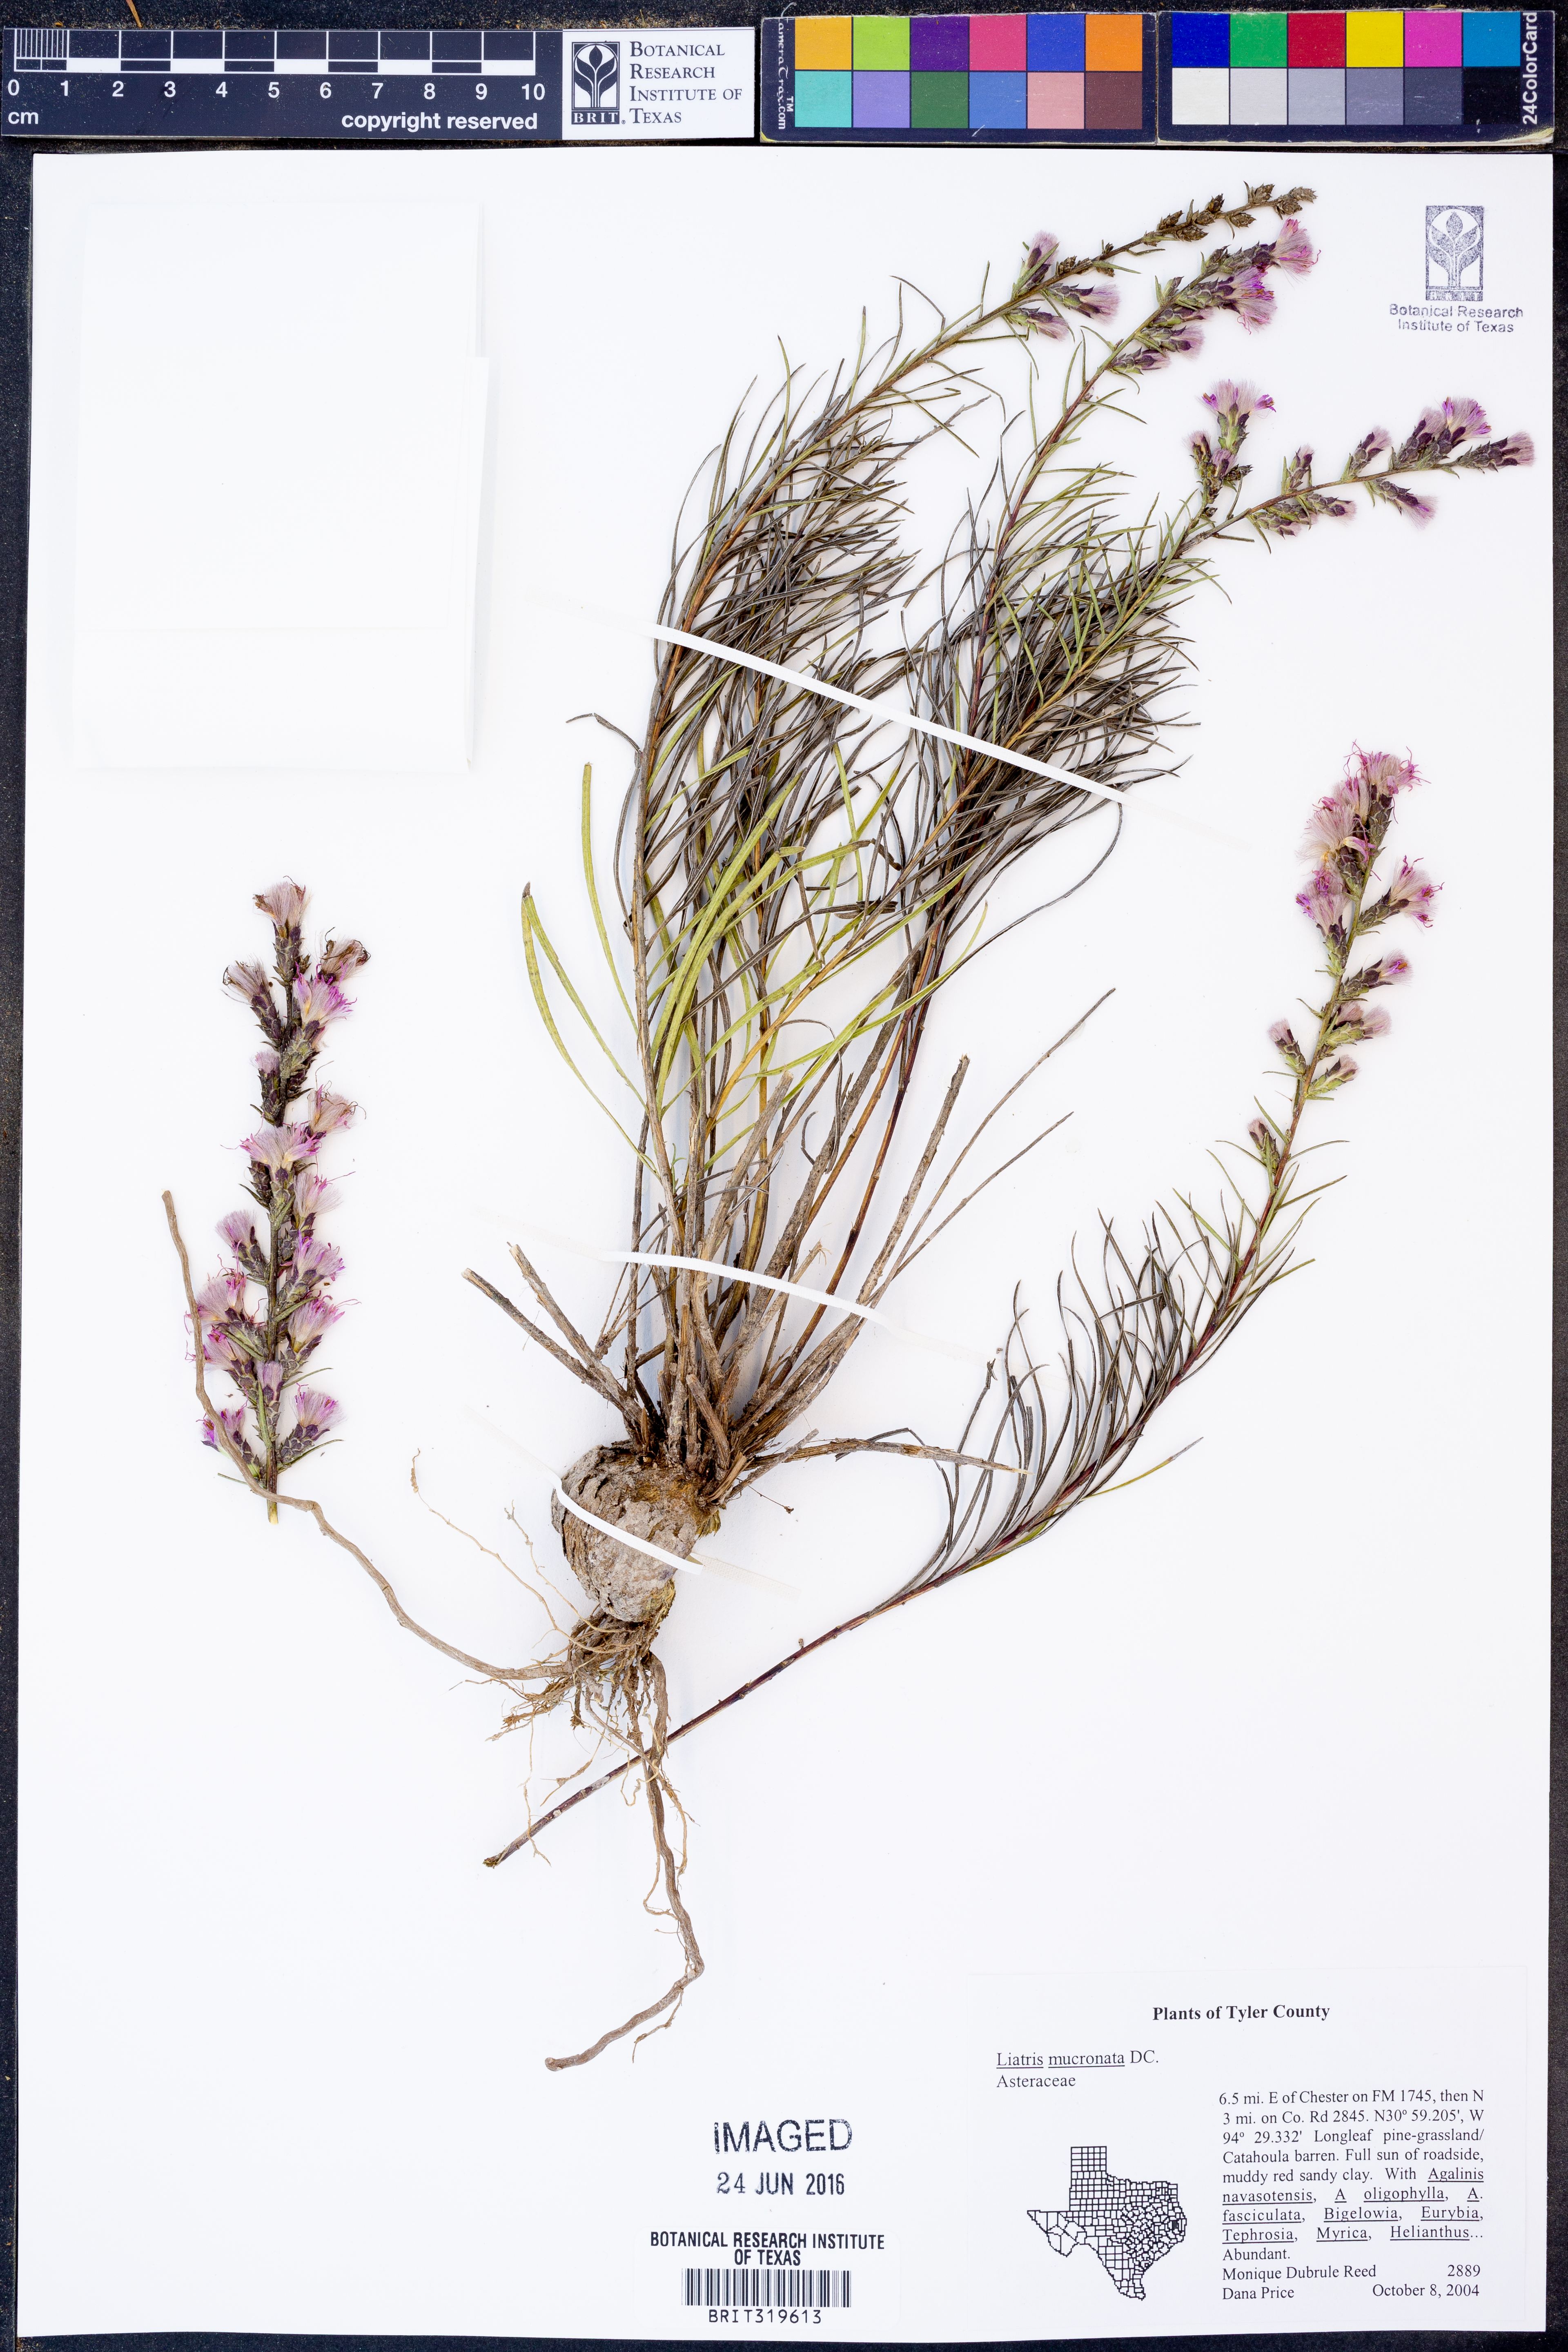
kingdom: Plantae
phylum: Tracheophyta
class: Magnoliopsida
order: Asterales
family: Asteraceae
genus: Liatris
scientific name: Liatris mucronata
